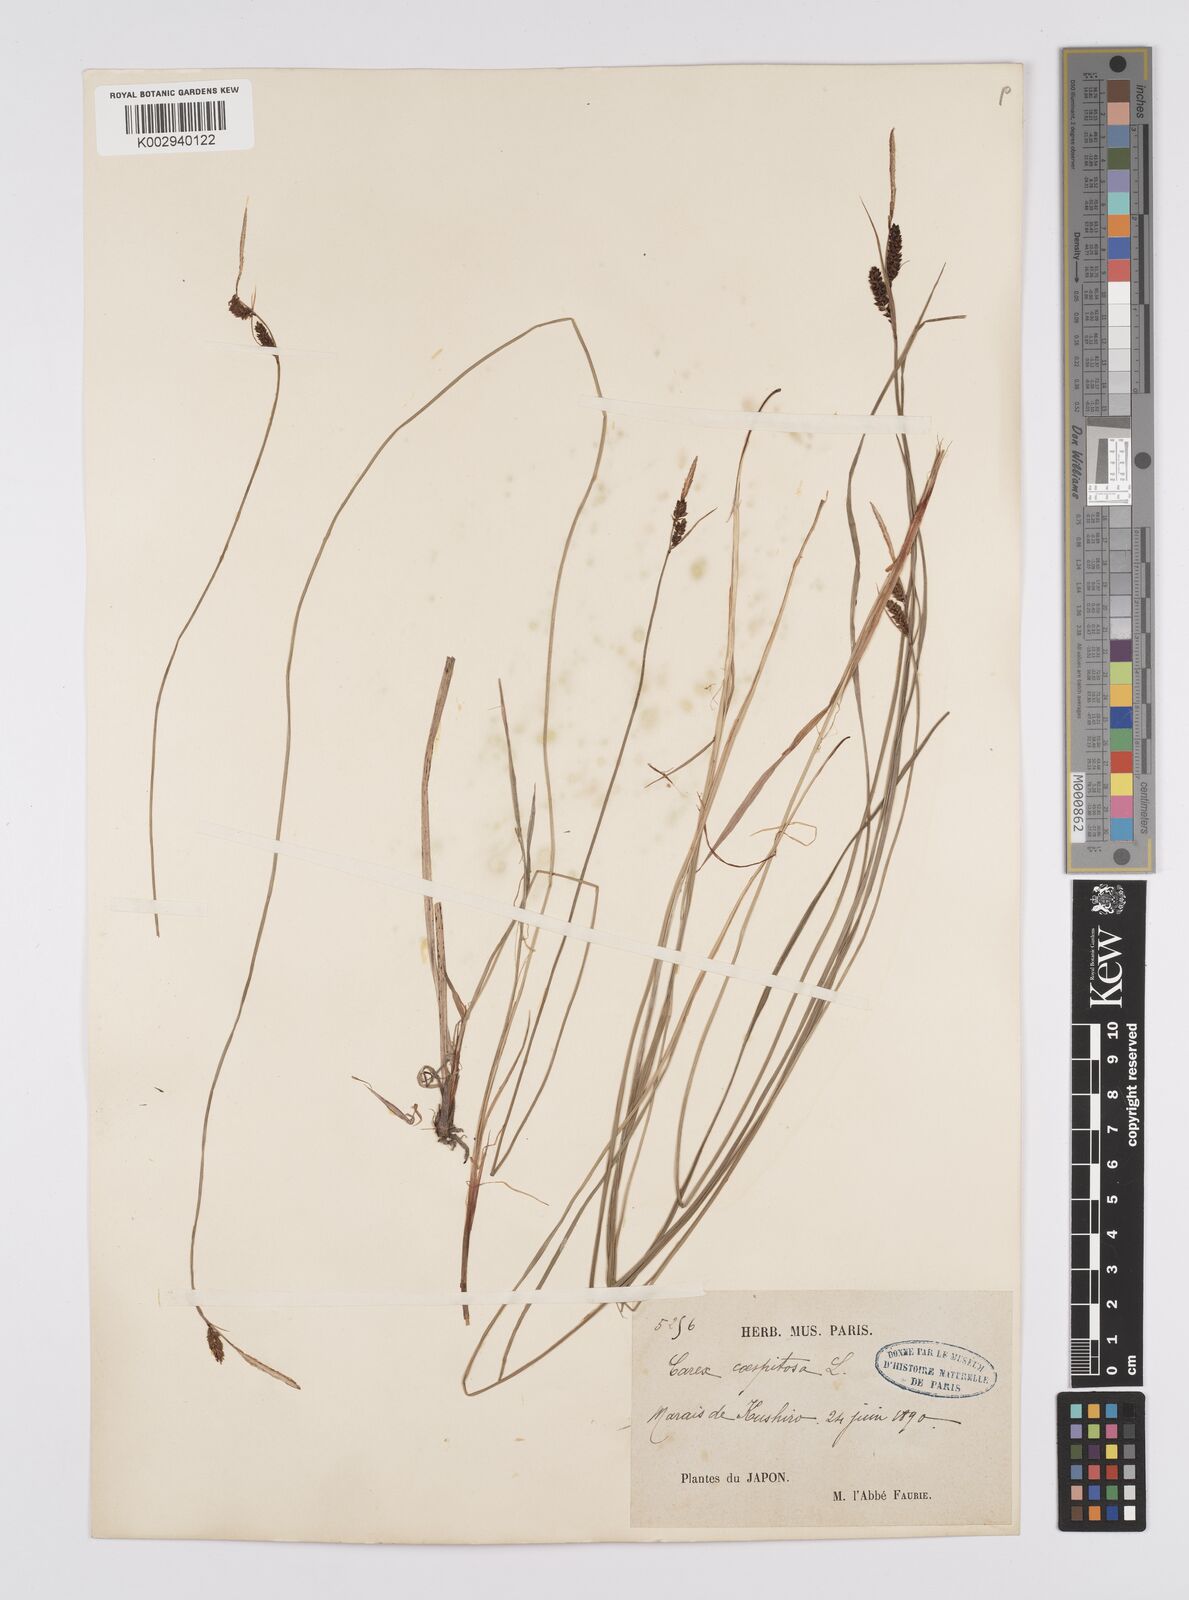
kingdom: Plantae
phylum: Tracheophyta
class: Liliopsida
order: Poales
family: Cyperaceae
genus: Carex
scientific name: Carex cespitosa
